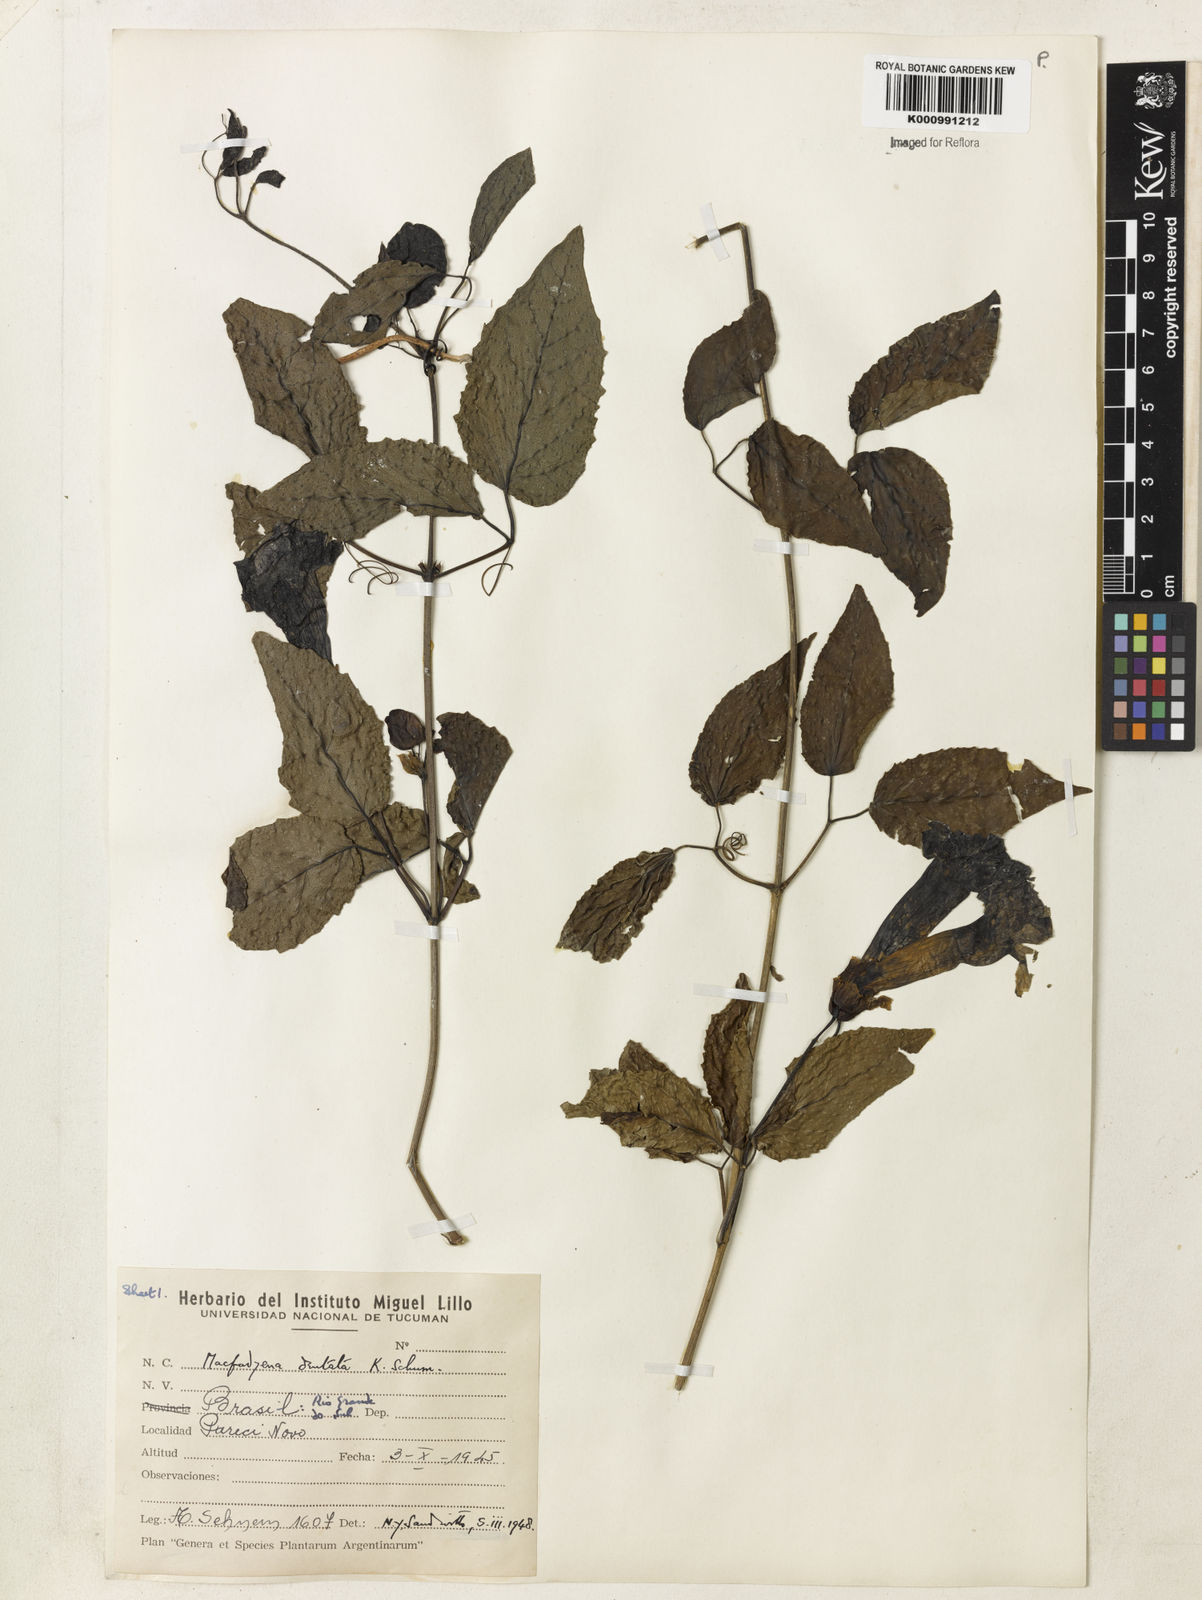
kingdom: Plantae
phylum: Tracheophyta
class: Magnoliopsida
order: Lamiales
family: Bignoniaceae
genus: Dolichandra
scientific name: Dolichandra dentata
